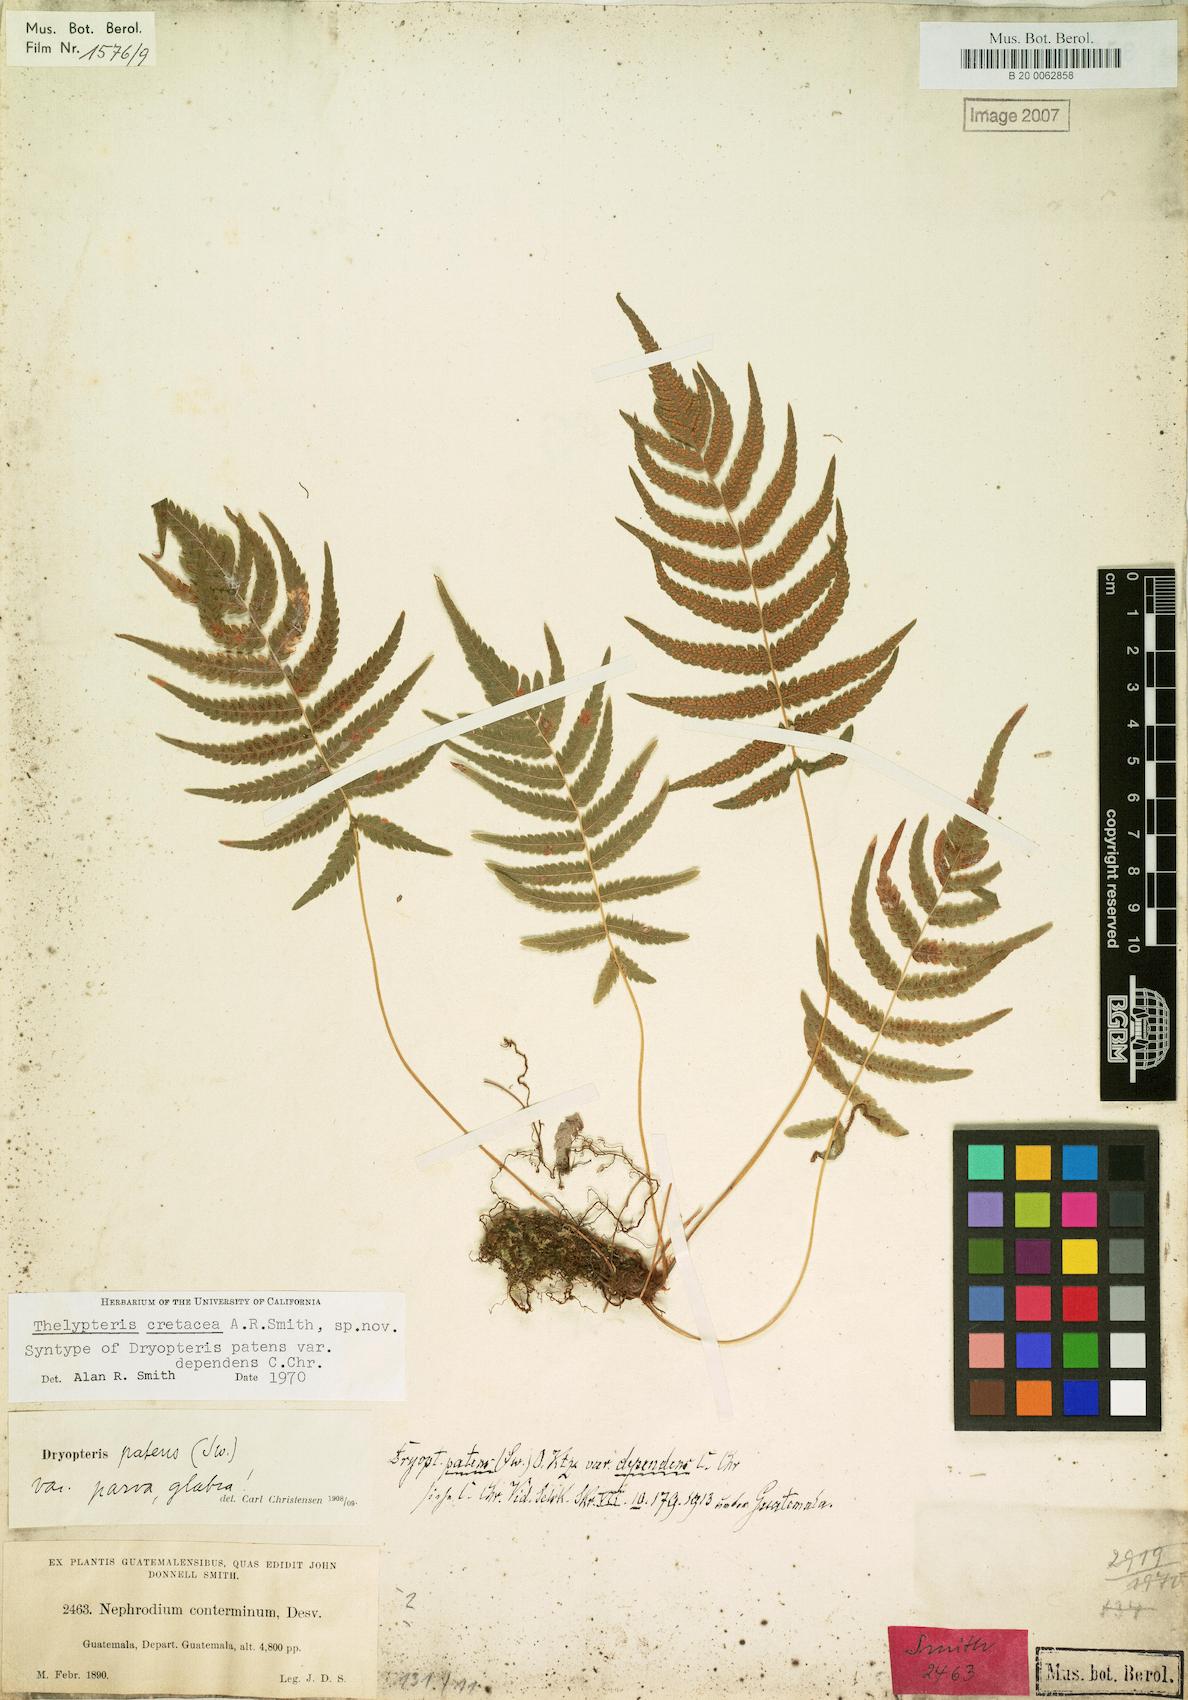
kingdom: Plantae
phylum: Tracheophyta
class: Polypodiopsida
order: Polypodiales
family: Thelypteridaceae
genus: Pelazoneuron
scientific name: Pelazoneuron cretaceum
